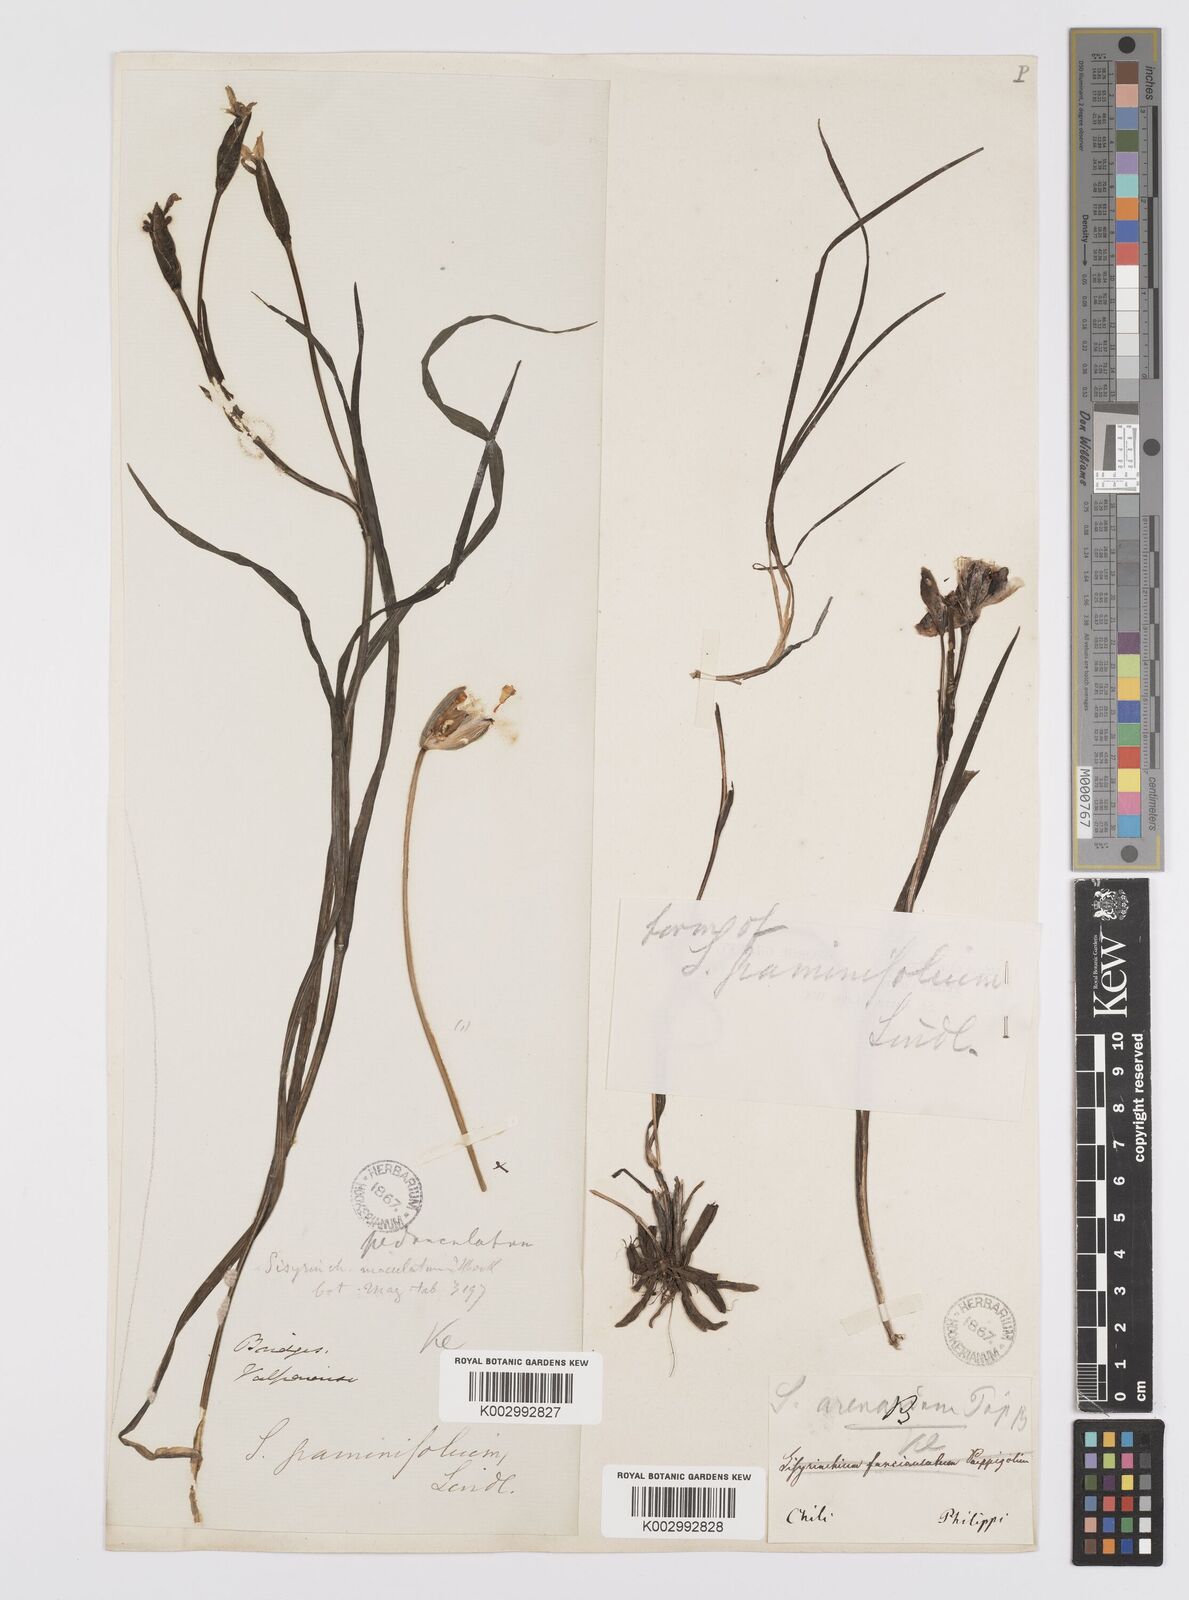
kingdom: Plantae
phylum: Tracheophyta
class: Liliopsida
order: Asparagales
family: Iridaceae
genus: Sisyrinchium
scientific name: Sisyrinchium graminifolium
